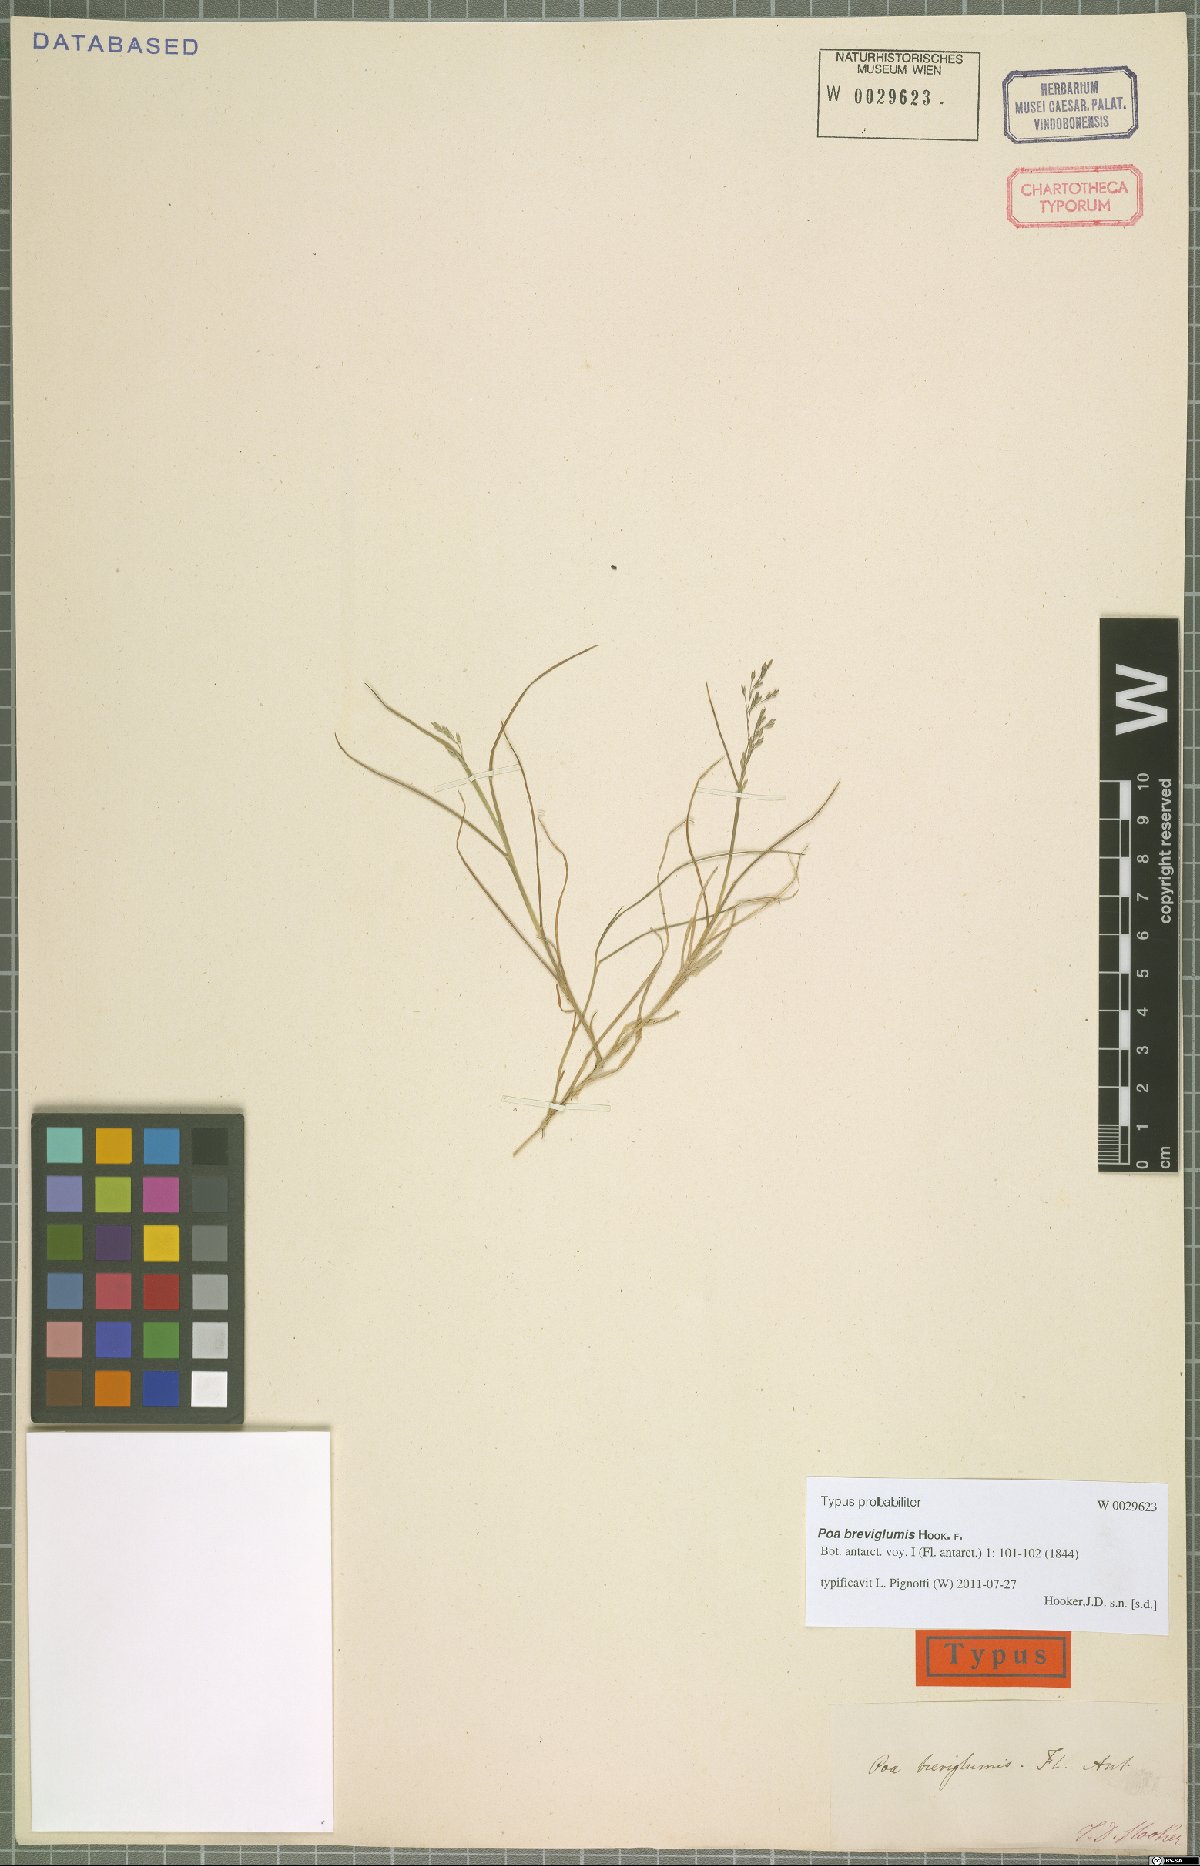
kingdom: Plantae
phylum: Tracheophyta
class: Liliopsida
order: Poales
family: Poaceae
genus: Poa
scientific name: Poa breviglumis
